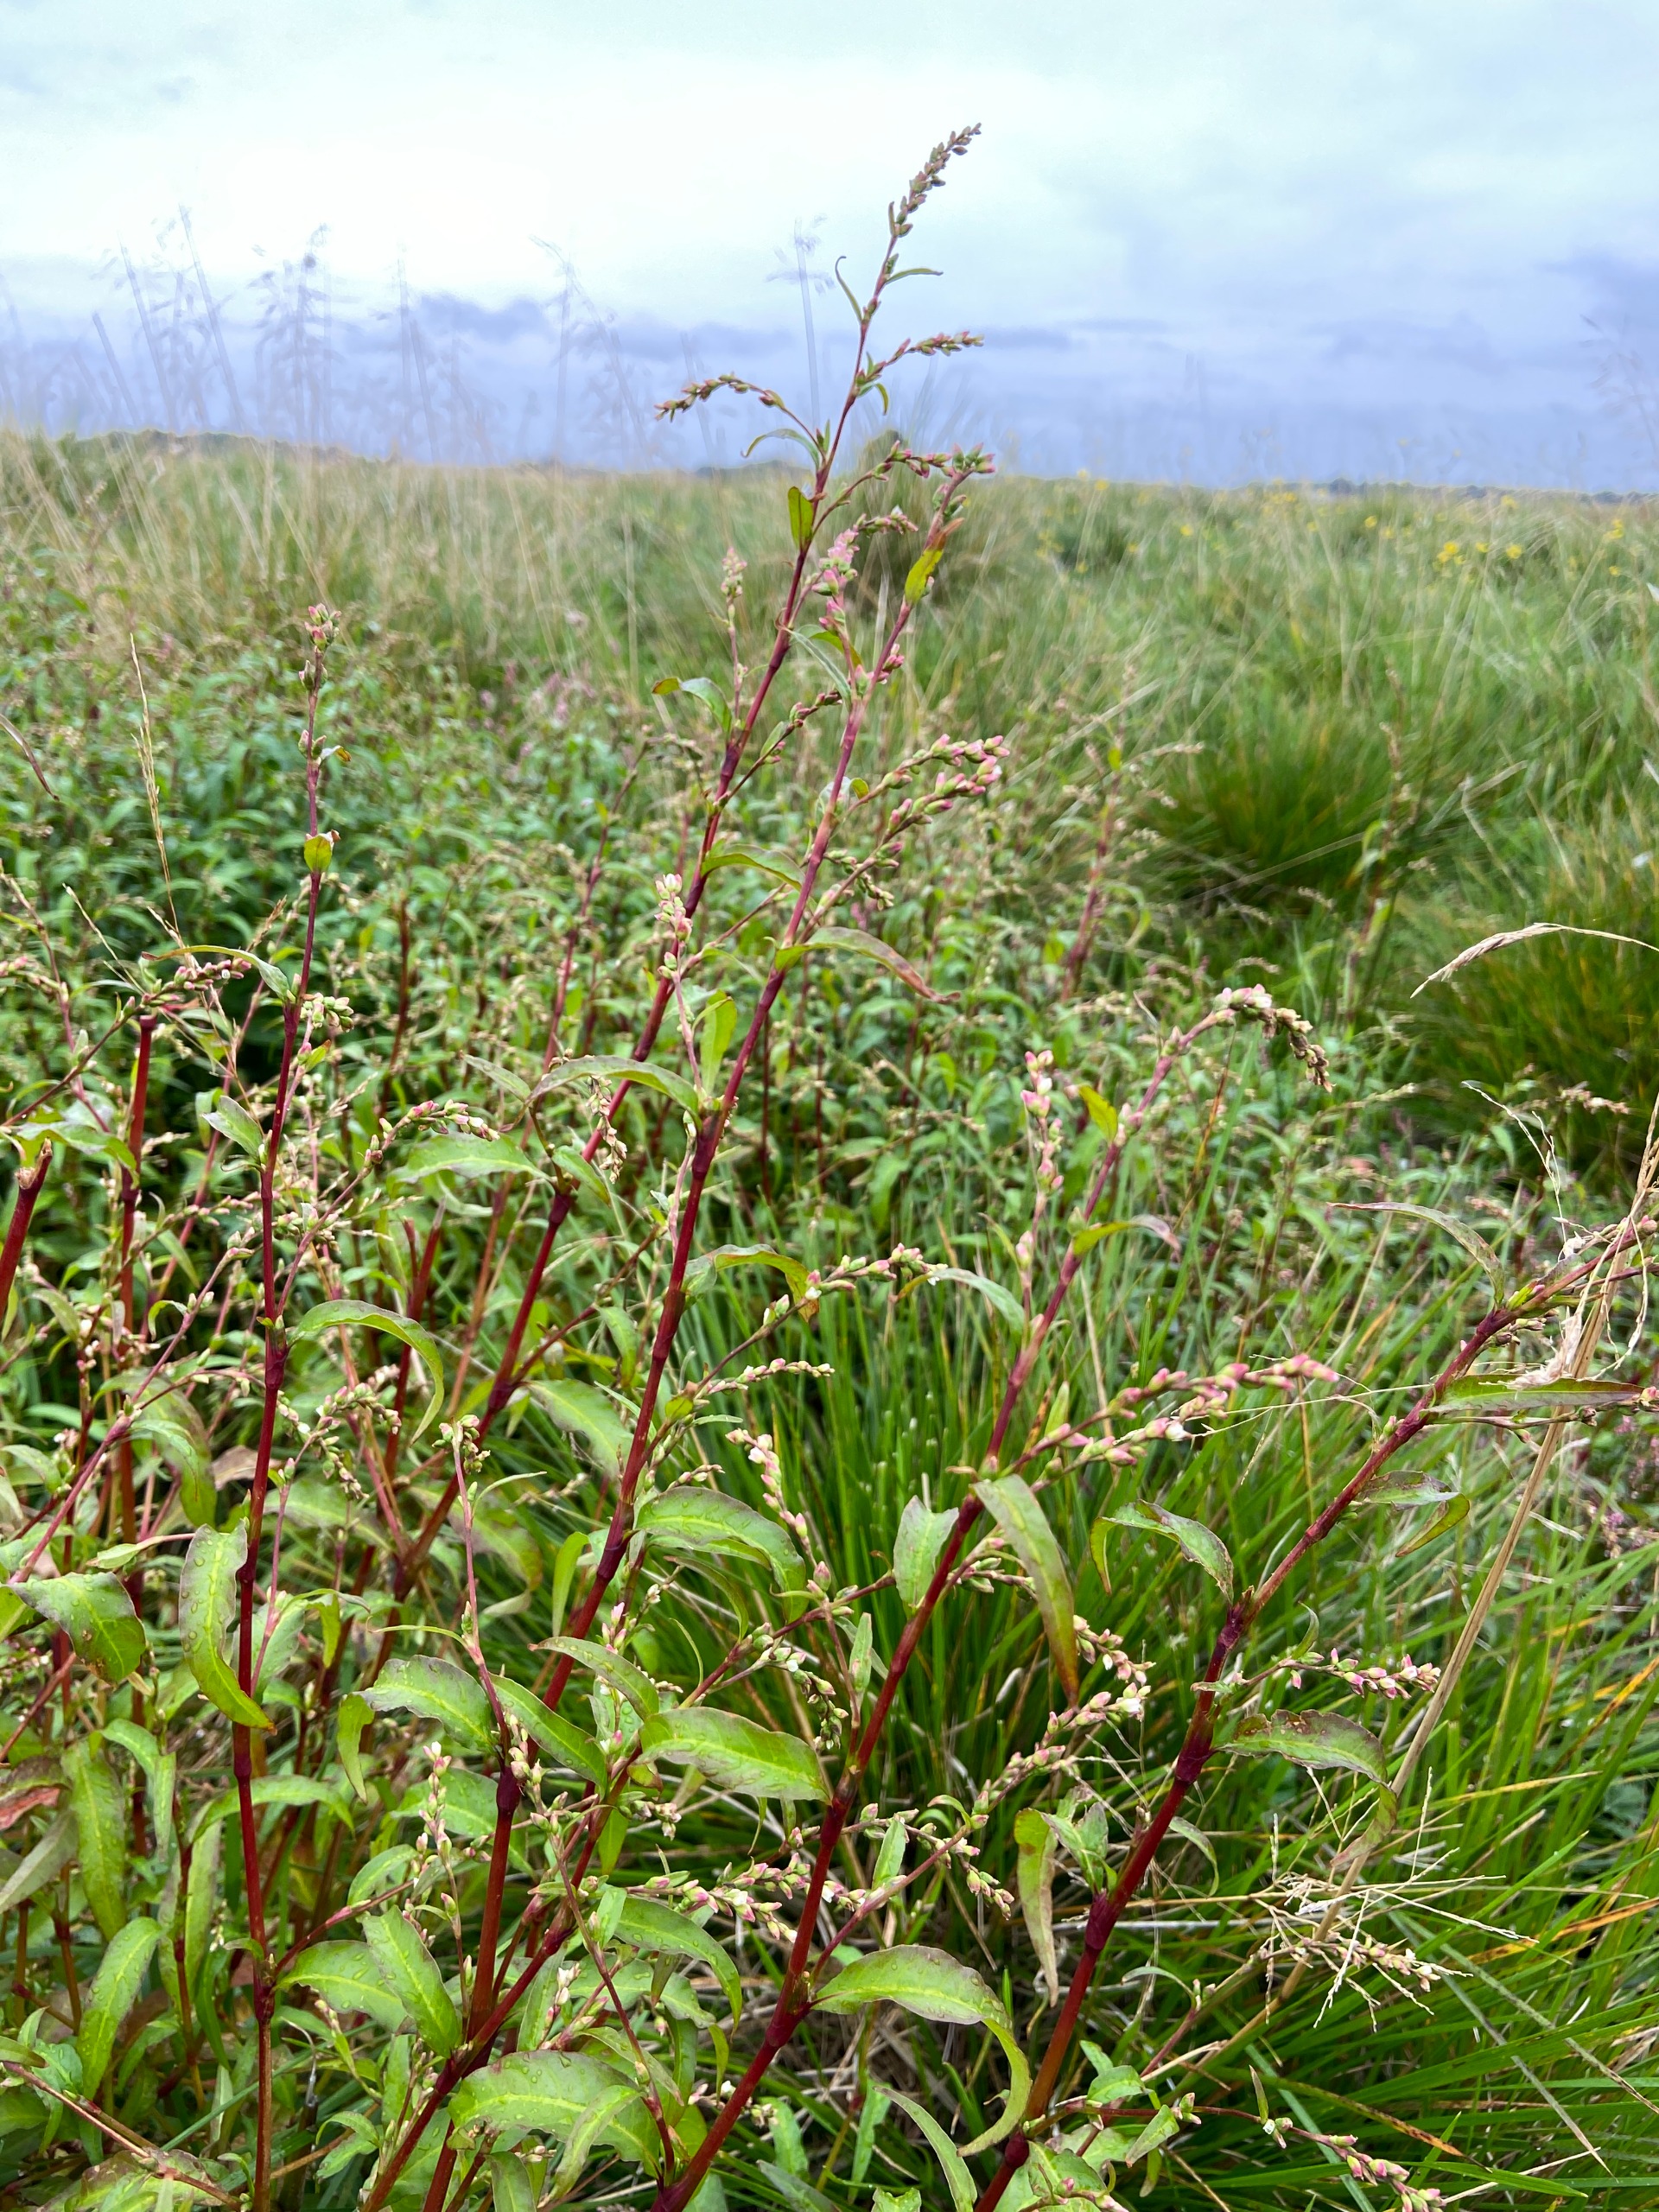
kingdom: Plantae
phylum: Tracheophyta
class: Magnoliopsida
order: Caryophyllales
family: Polygonaceae
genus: Persicaria
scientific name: Persicaria hydropiper
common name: Bidende pileurt
